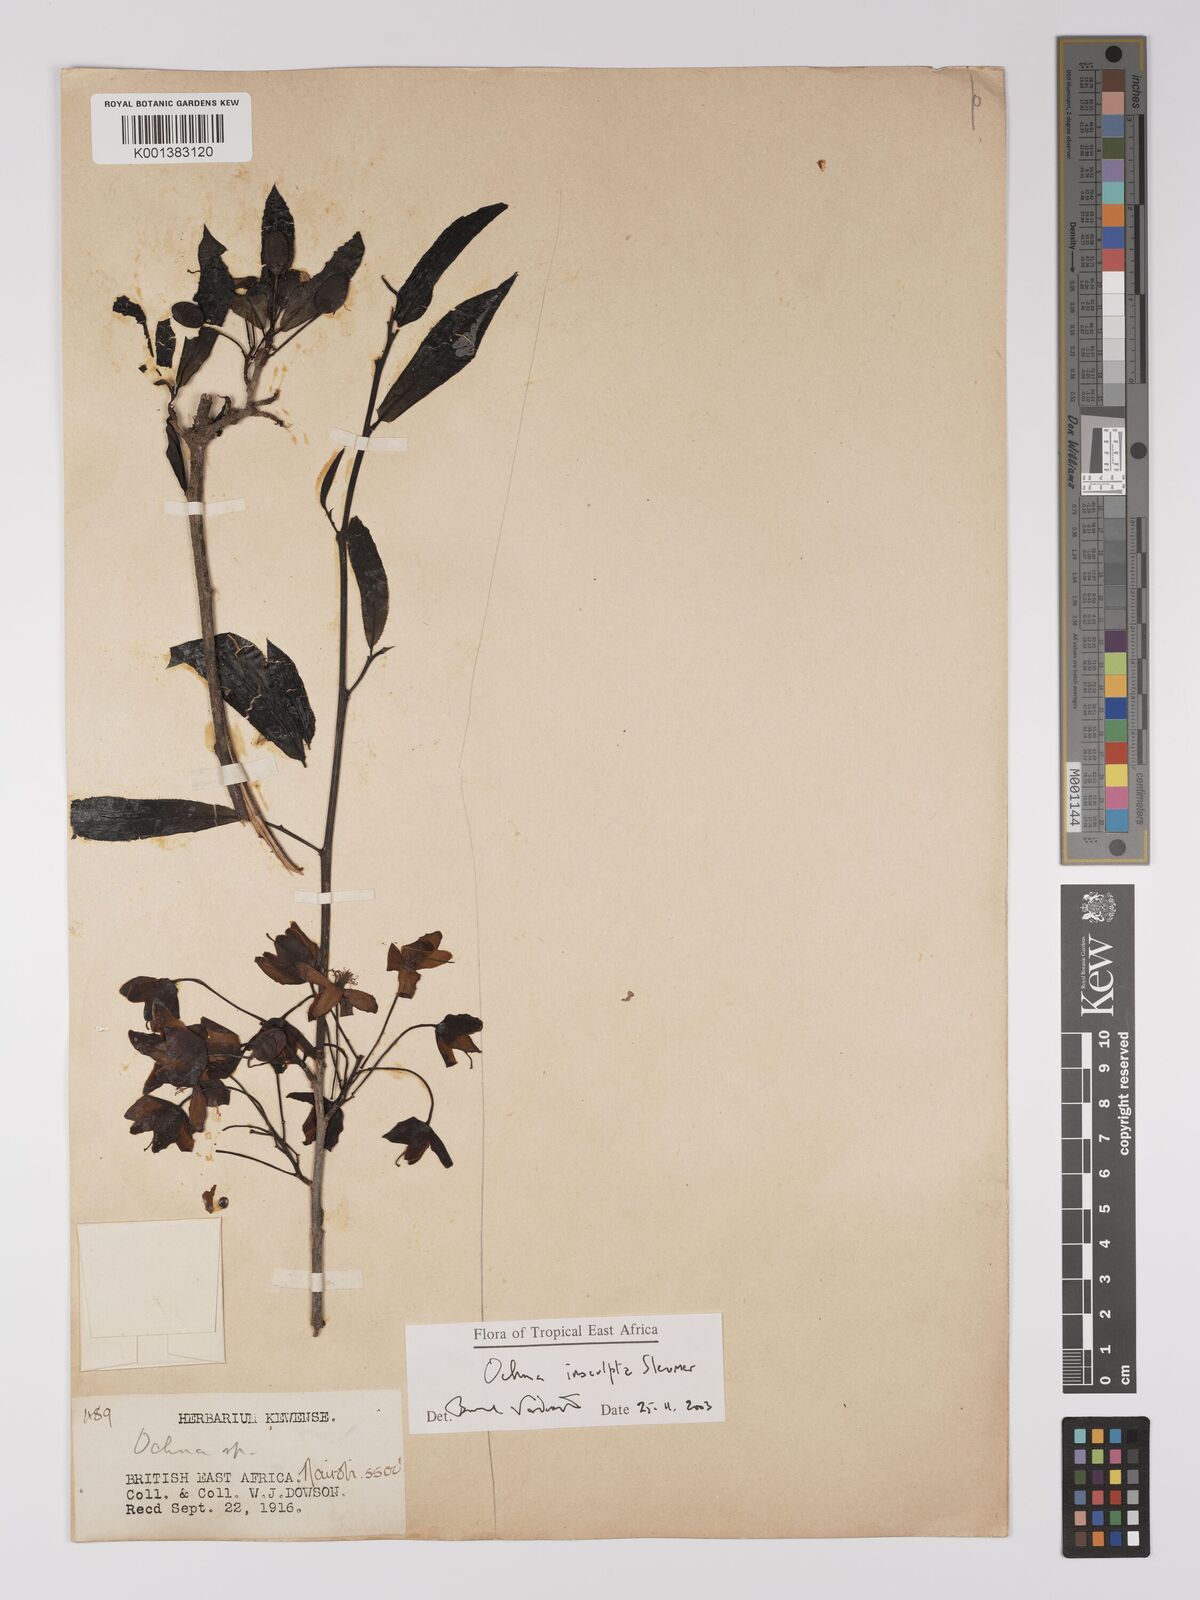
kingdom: Plantae
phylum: Tracheophyta
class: Magnoliopsida
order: Malpighiales
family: Ochnaceae
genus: Ochna
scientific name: Ochna insculpta
